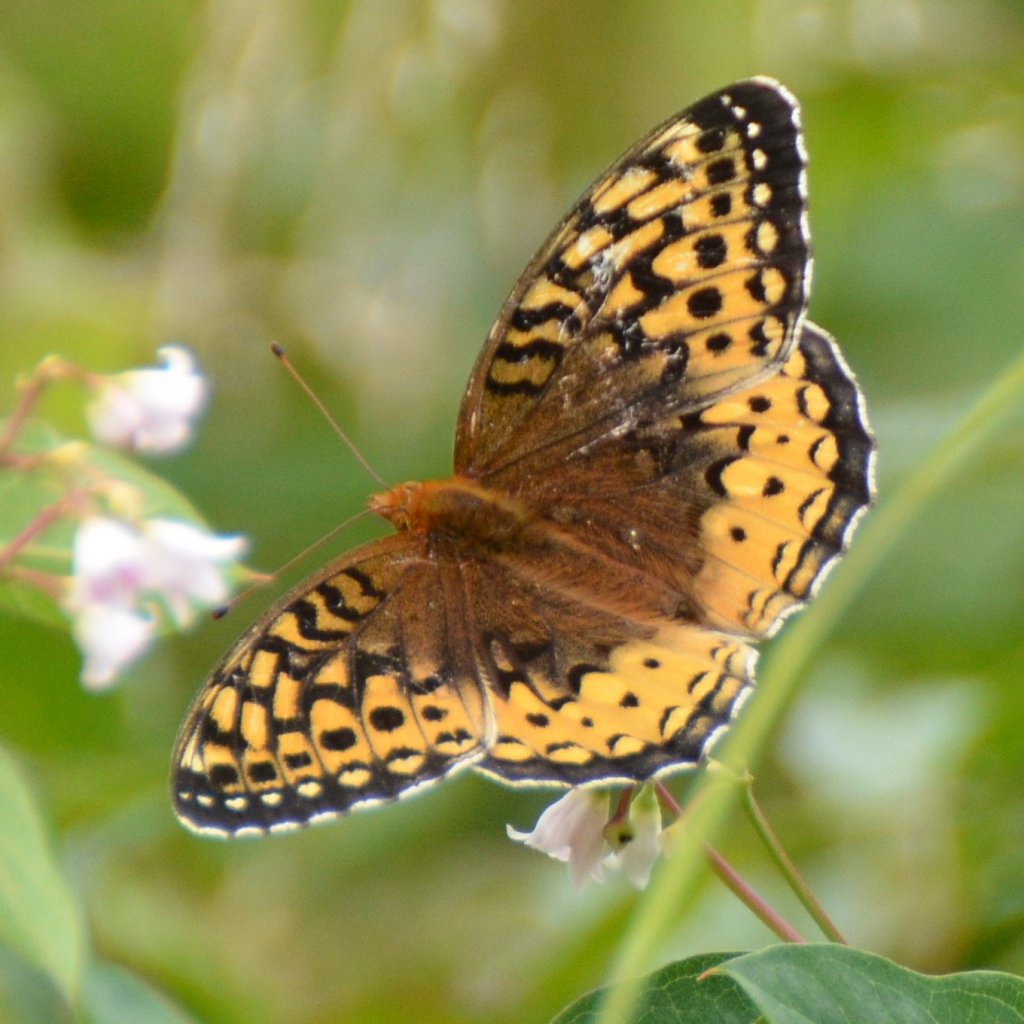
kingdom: Animalia
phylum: Arthropoda
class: Insecta
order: Lepidoptera
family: Nymphalidae
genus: Speyeria
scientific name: Speyeria cybele
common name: Great Spangled Fritillary
